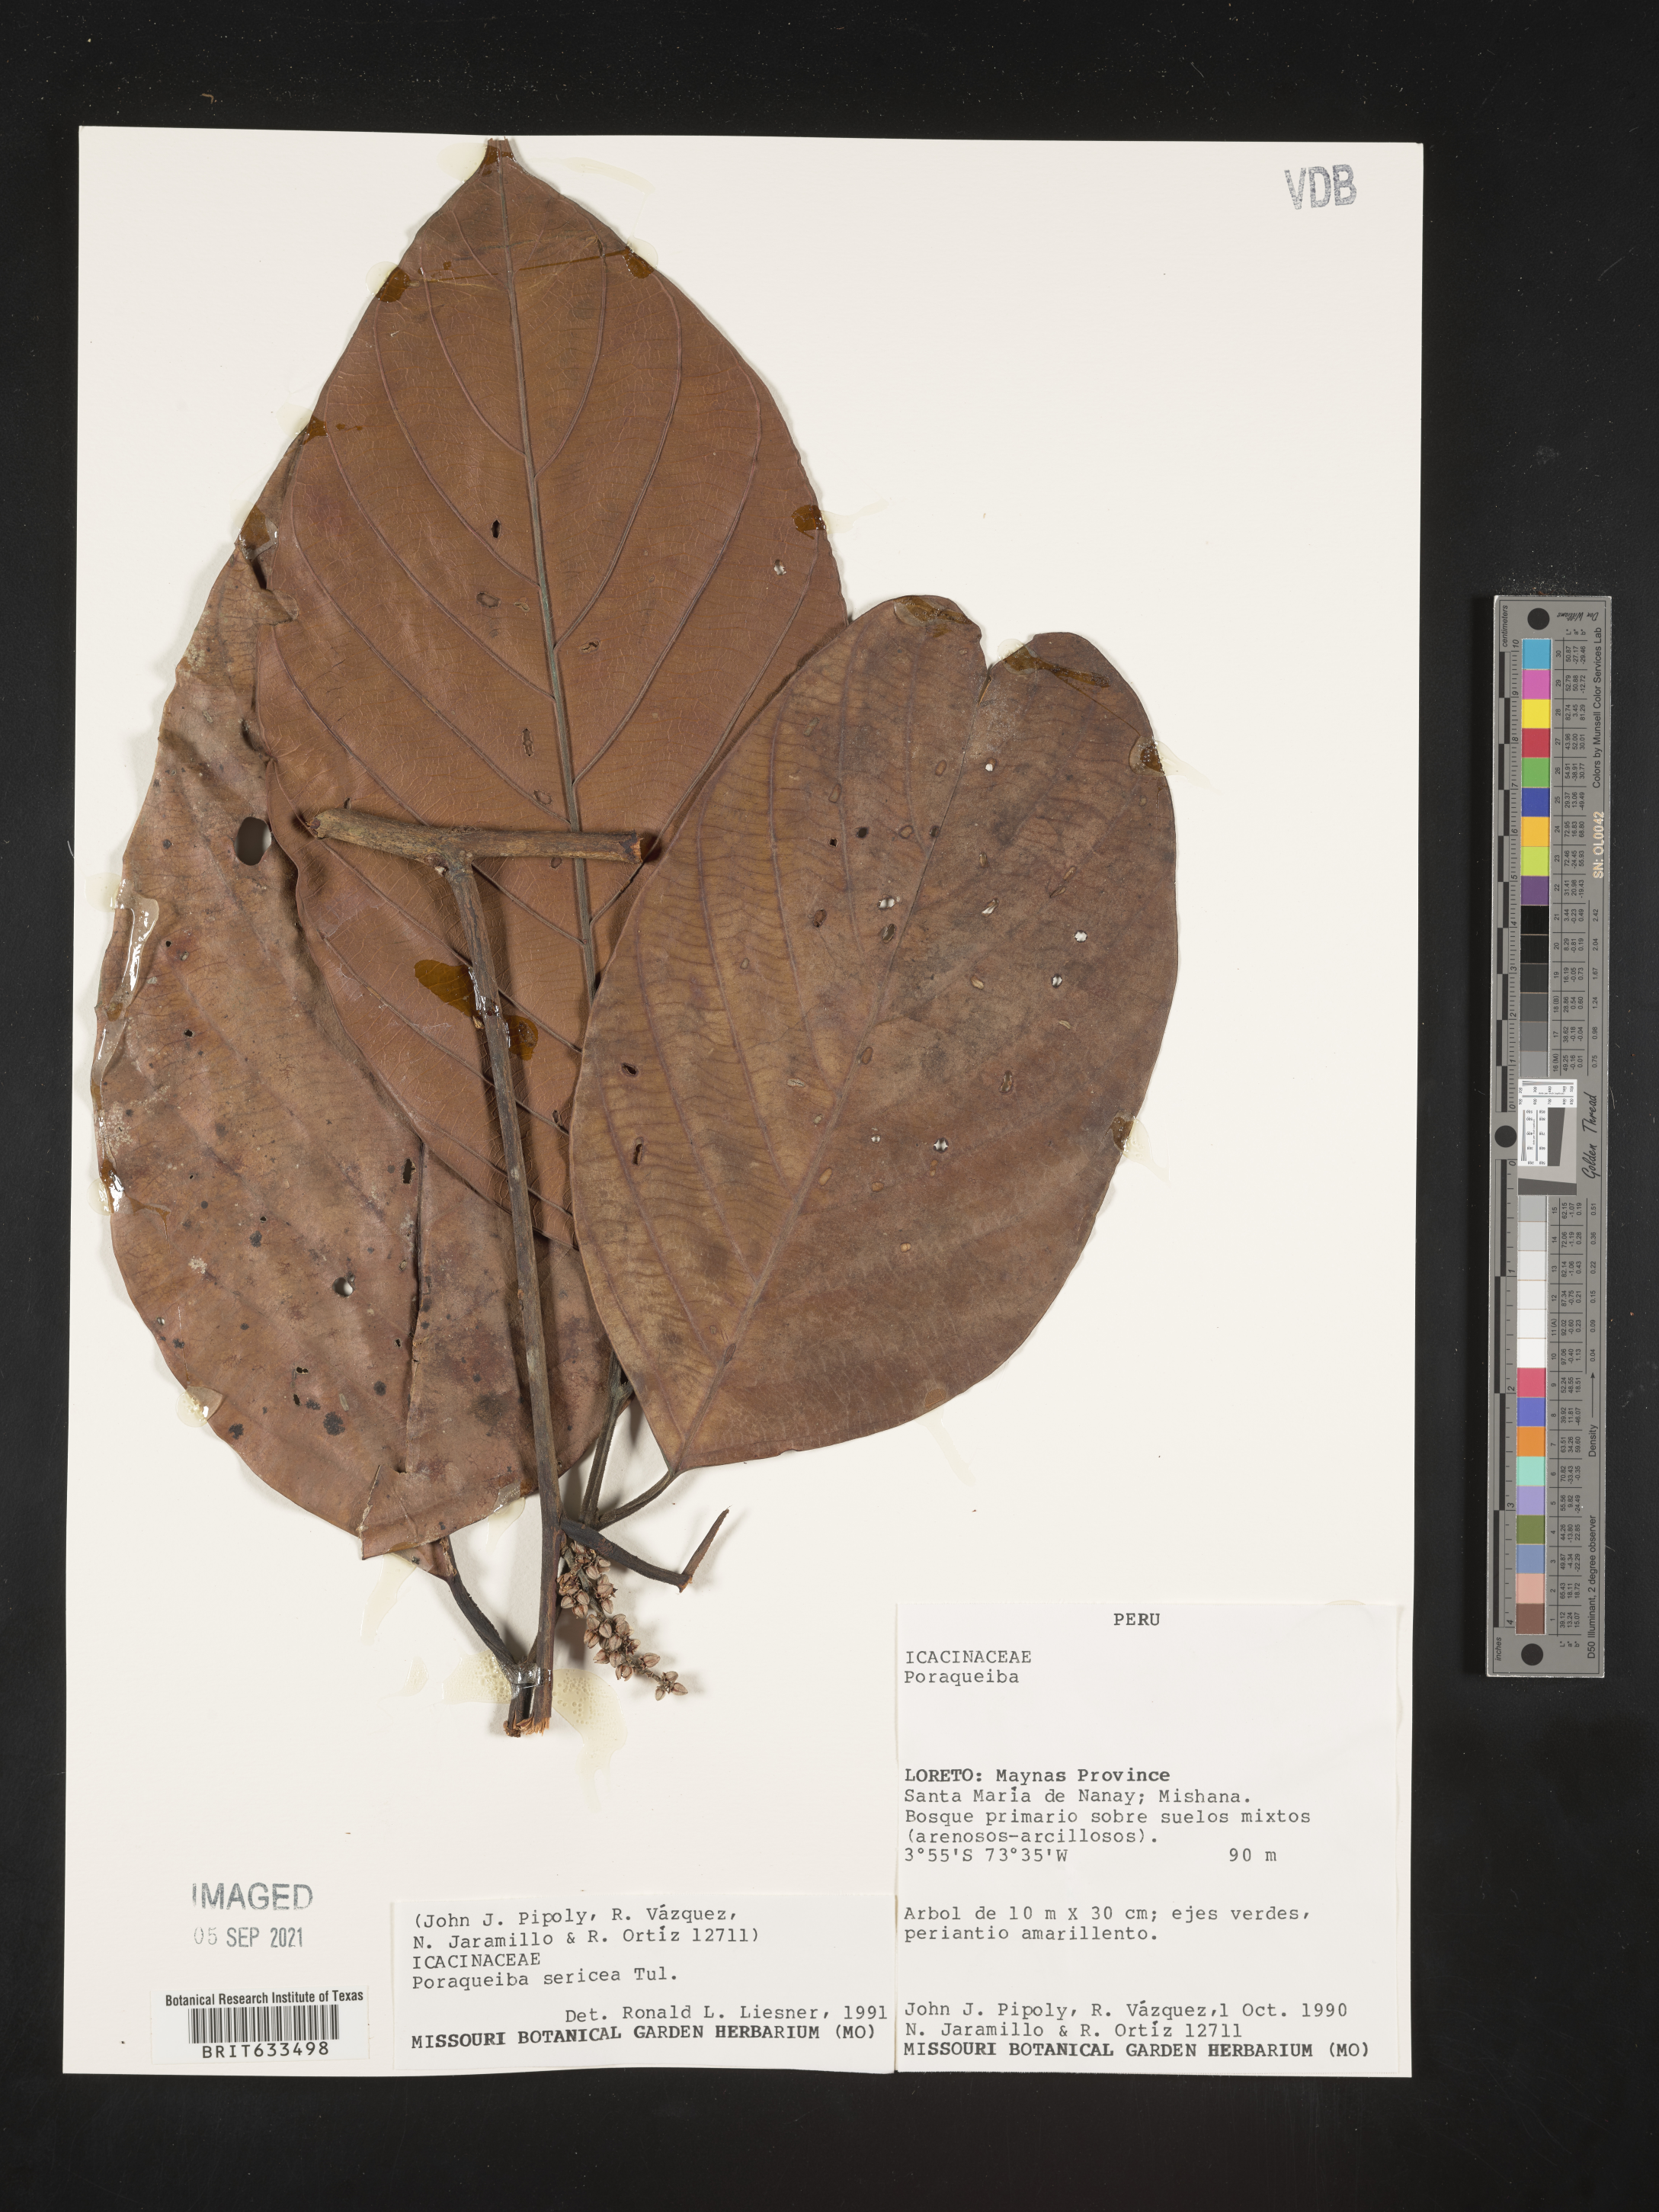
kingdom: Plantae
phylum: Tracheophyta
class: Magnoliopsida
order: Icacinales
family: Icacinaceae
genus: Poraqueiba
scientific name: Poraqueiba
